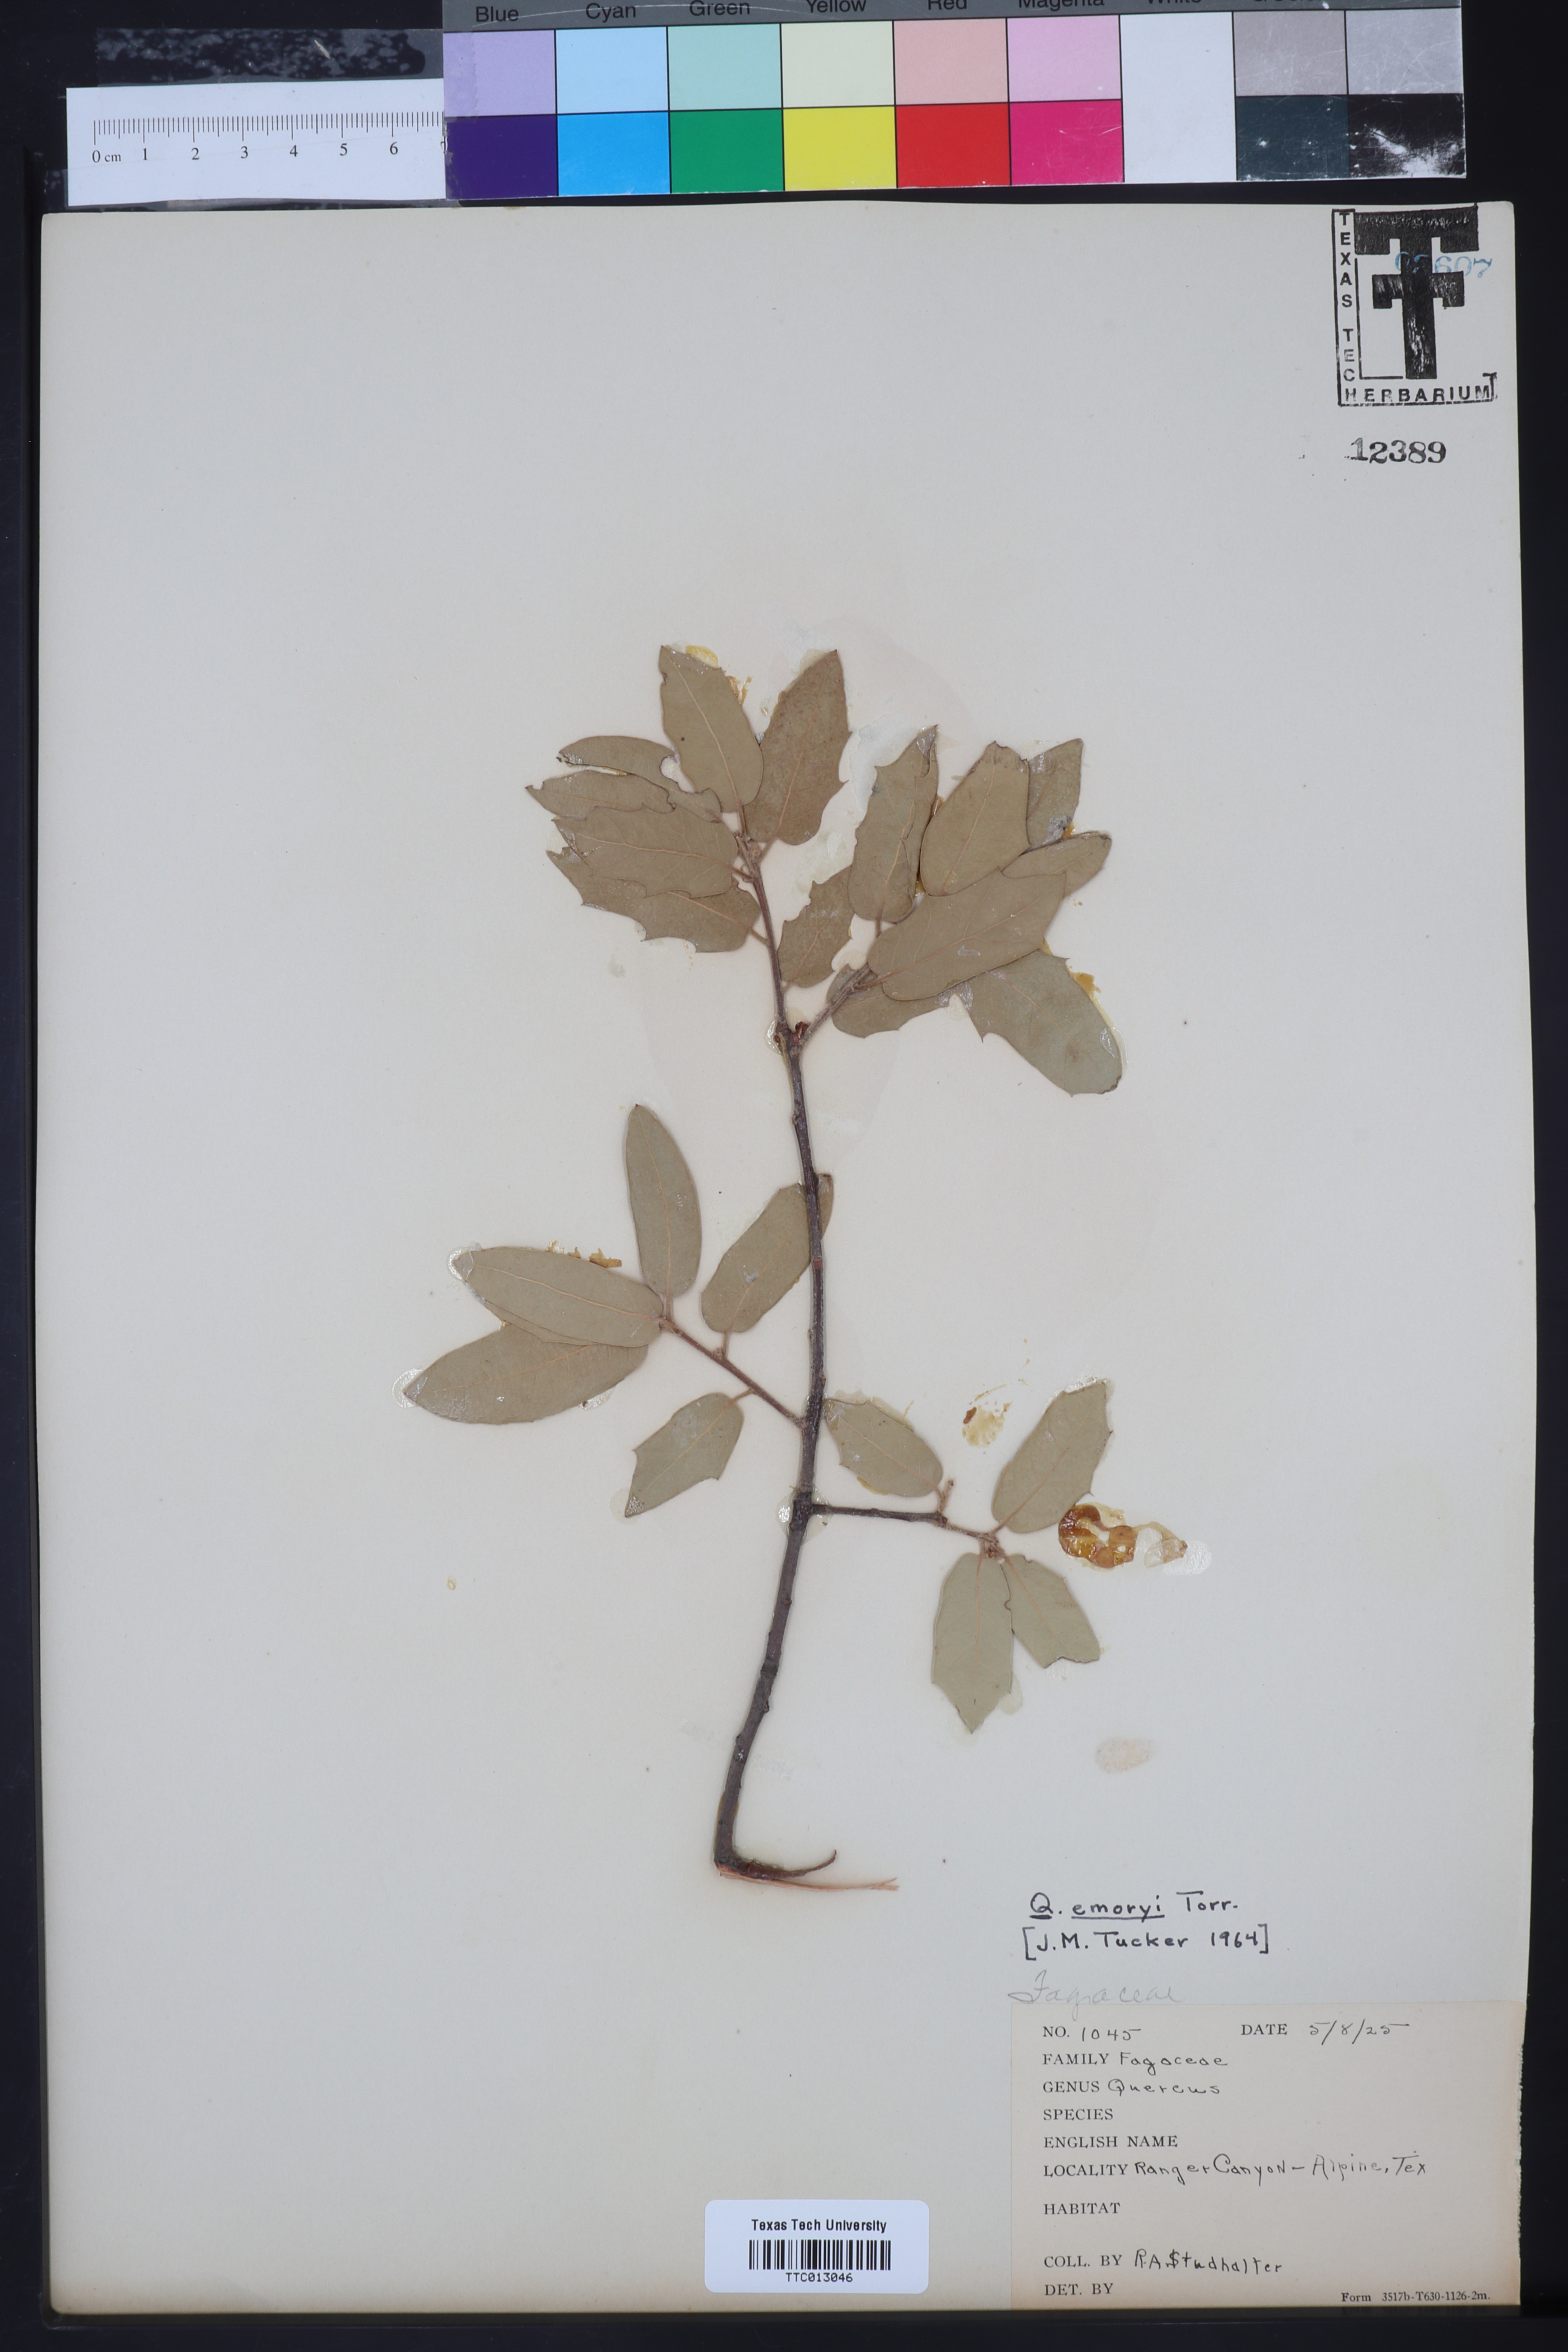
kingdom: Plantae
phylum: Tracheophyta
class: Magnoliopsida
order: Fagales
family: Fagaceae
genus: Quercus
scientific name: Quercus emoryi
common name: Emory oak
